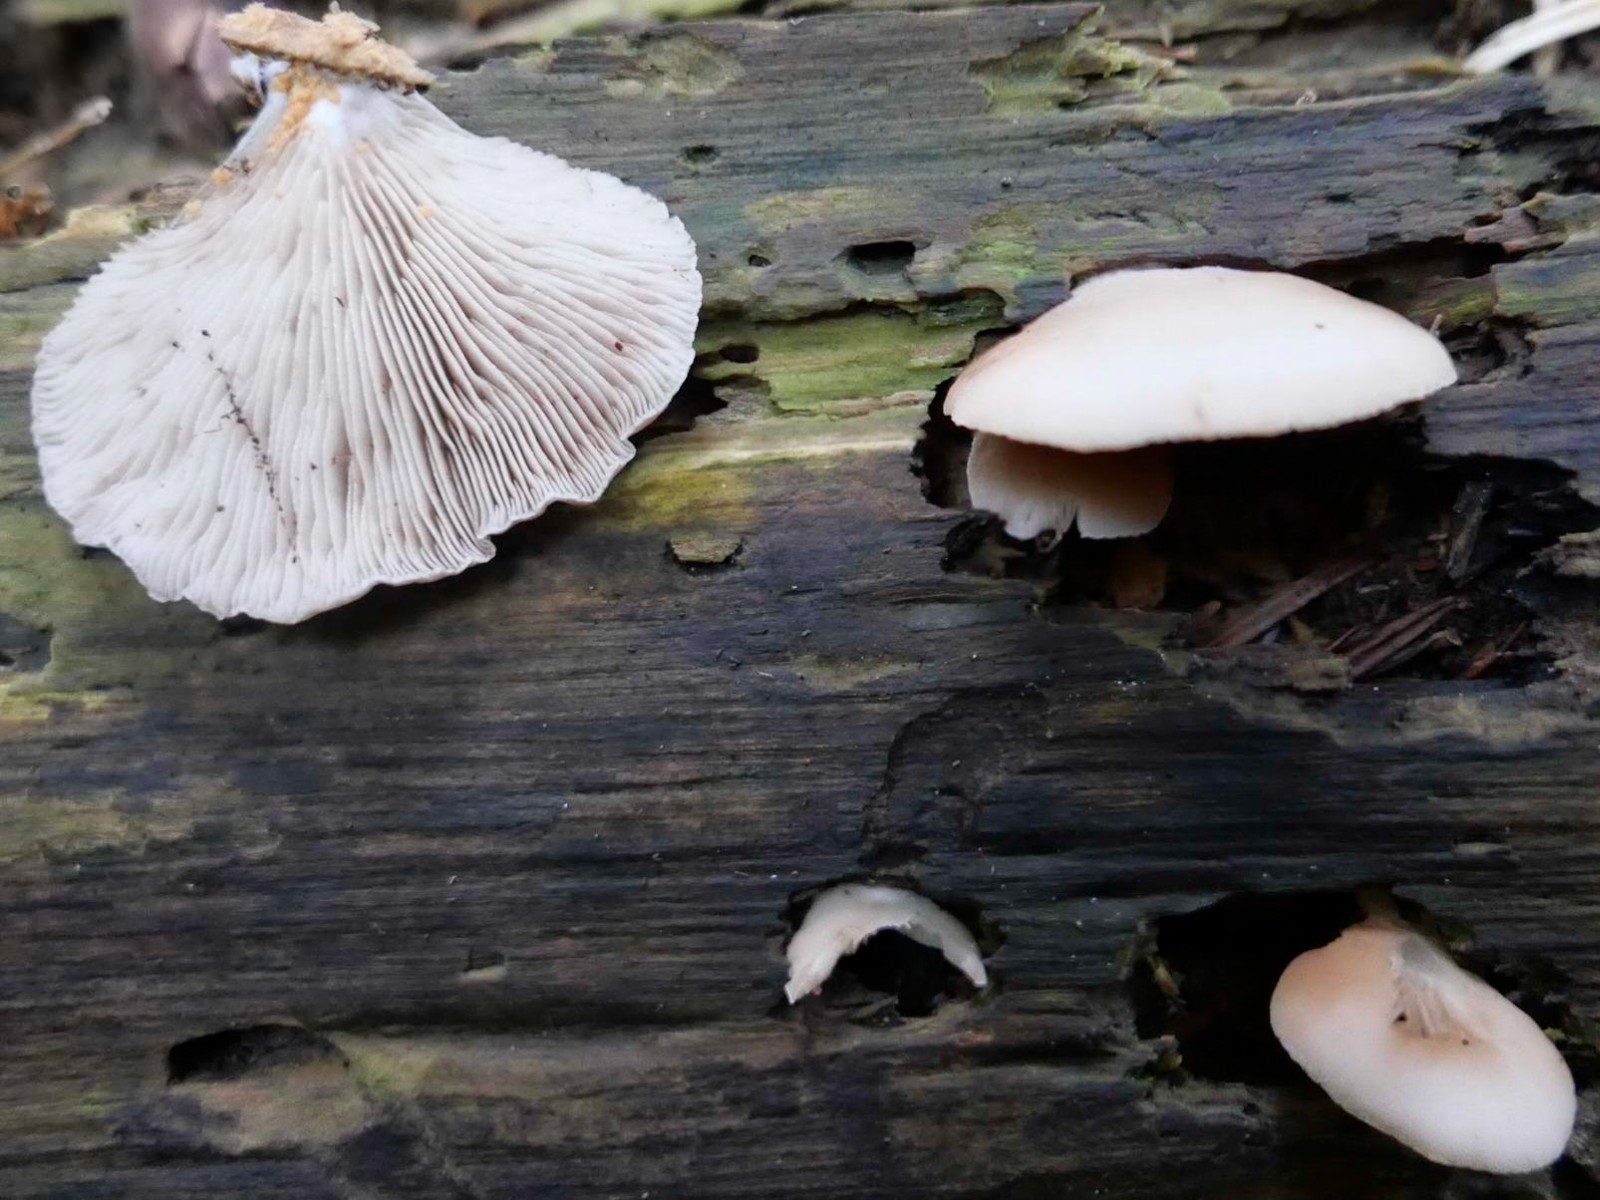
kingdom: Fungi
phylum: Basidiomycota
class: Agaricomycetes
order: Agaricales
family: Crepidotaceae
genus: Crepidotus
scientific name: Crepidotus stenocystis
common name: nåletræs-muslingesvamp
